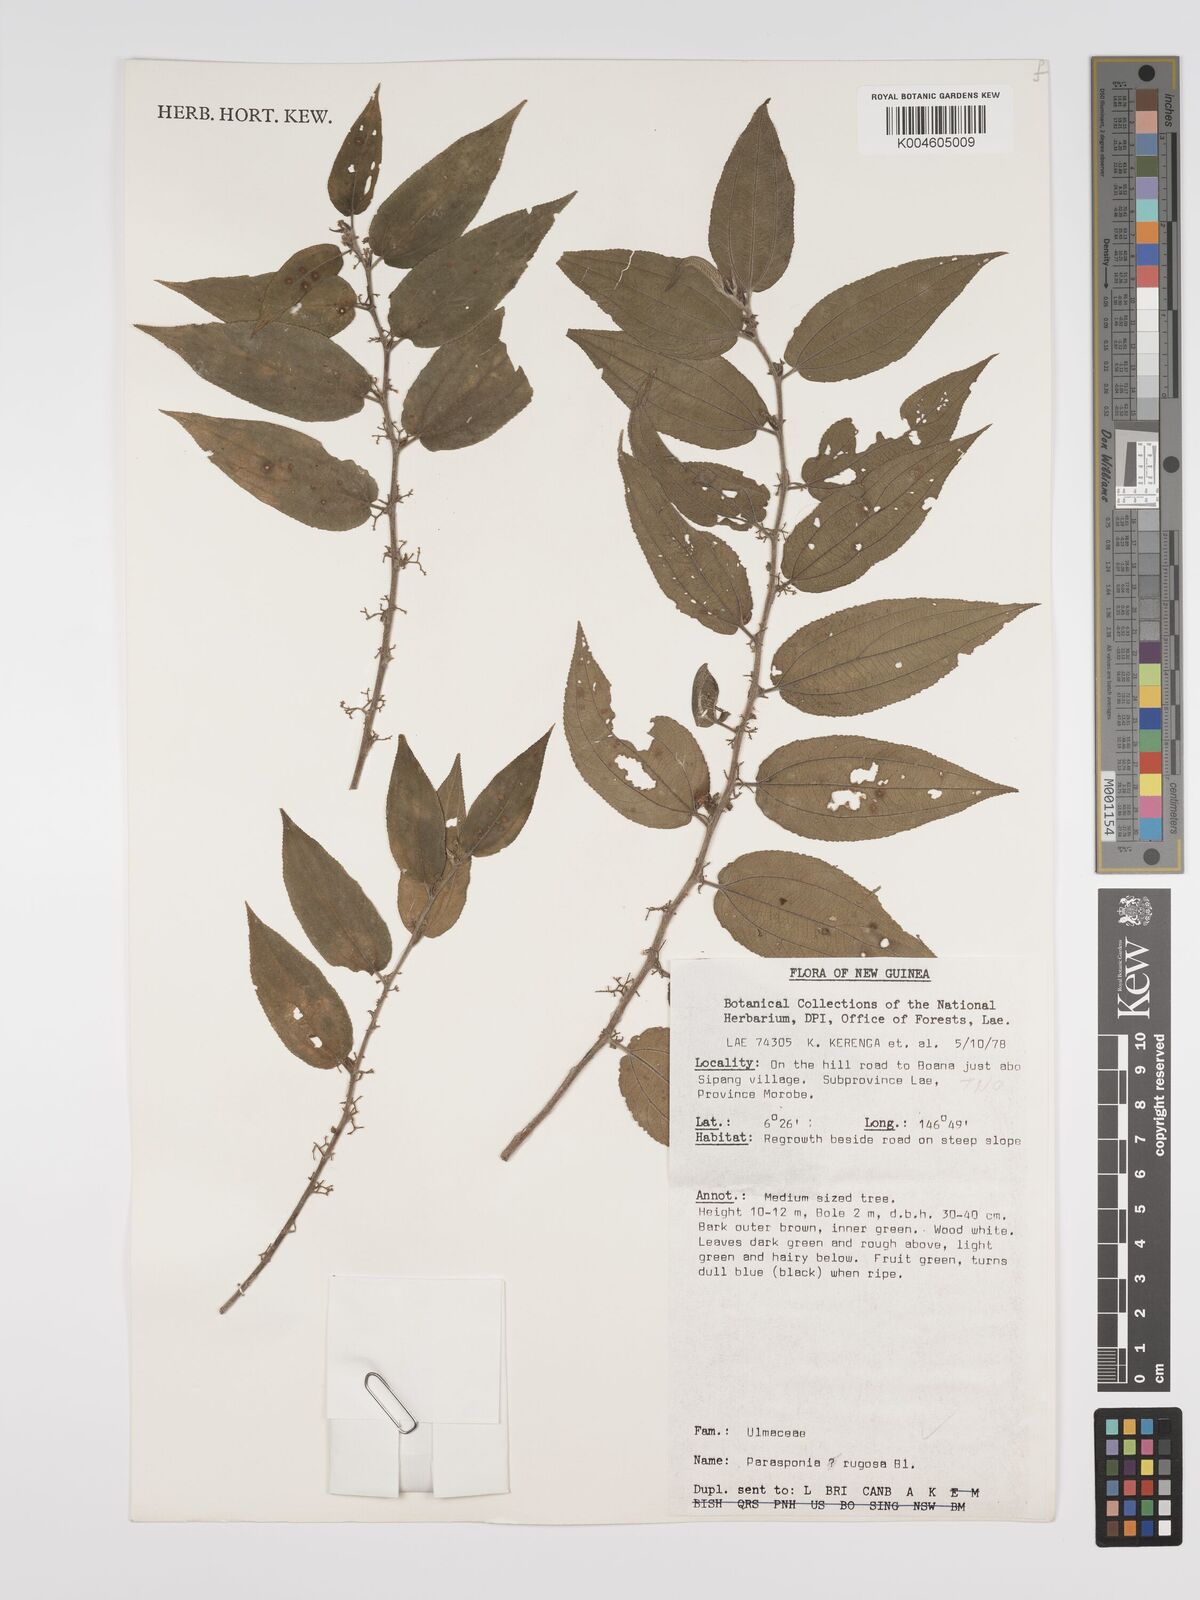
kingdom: Plantae
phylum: Tracheophyta
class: Magnoliopsida
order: Rosales
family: Cannabaceae
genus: Trema
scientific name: Trema eurhynchum
